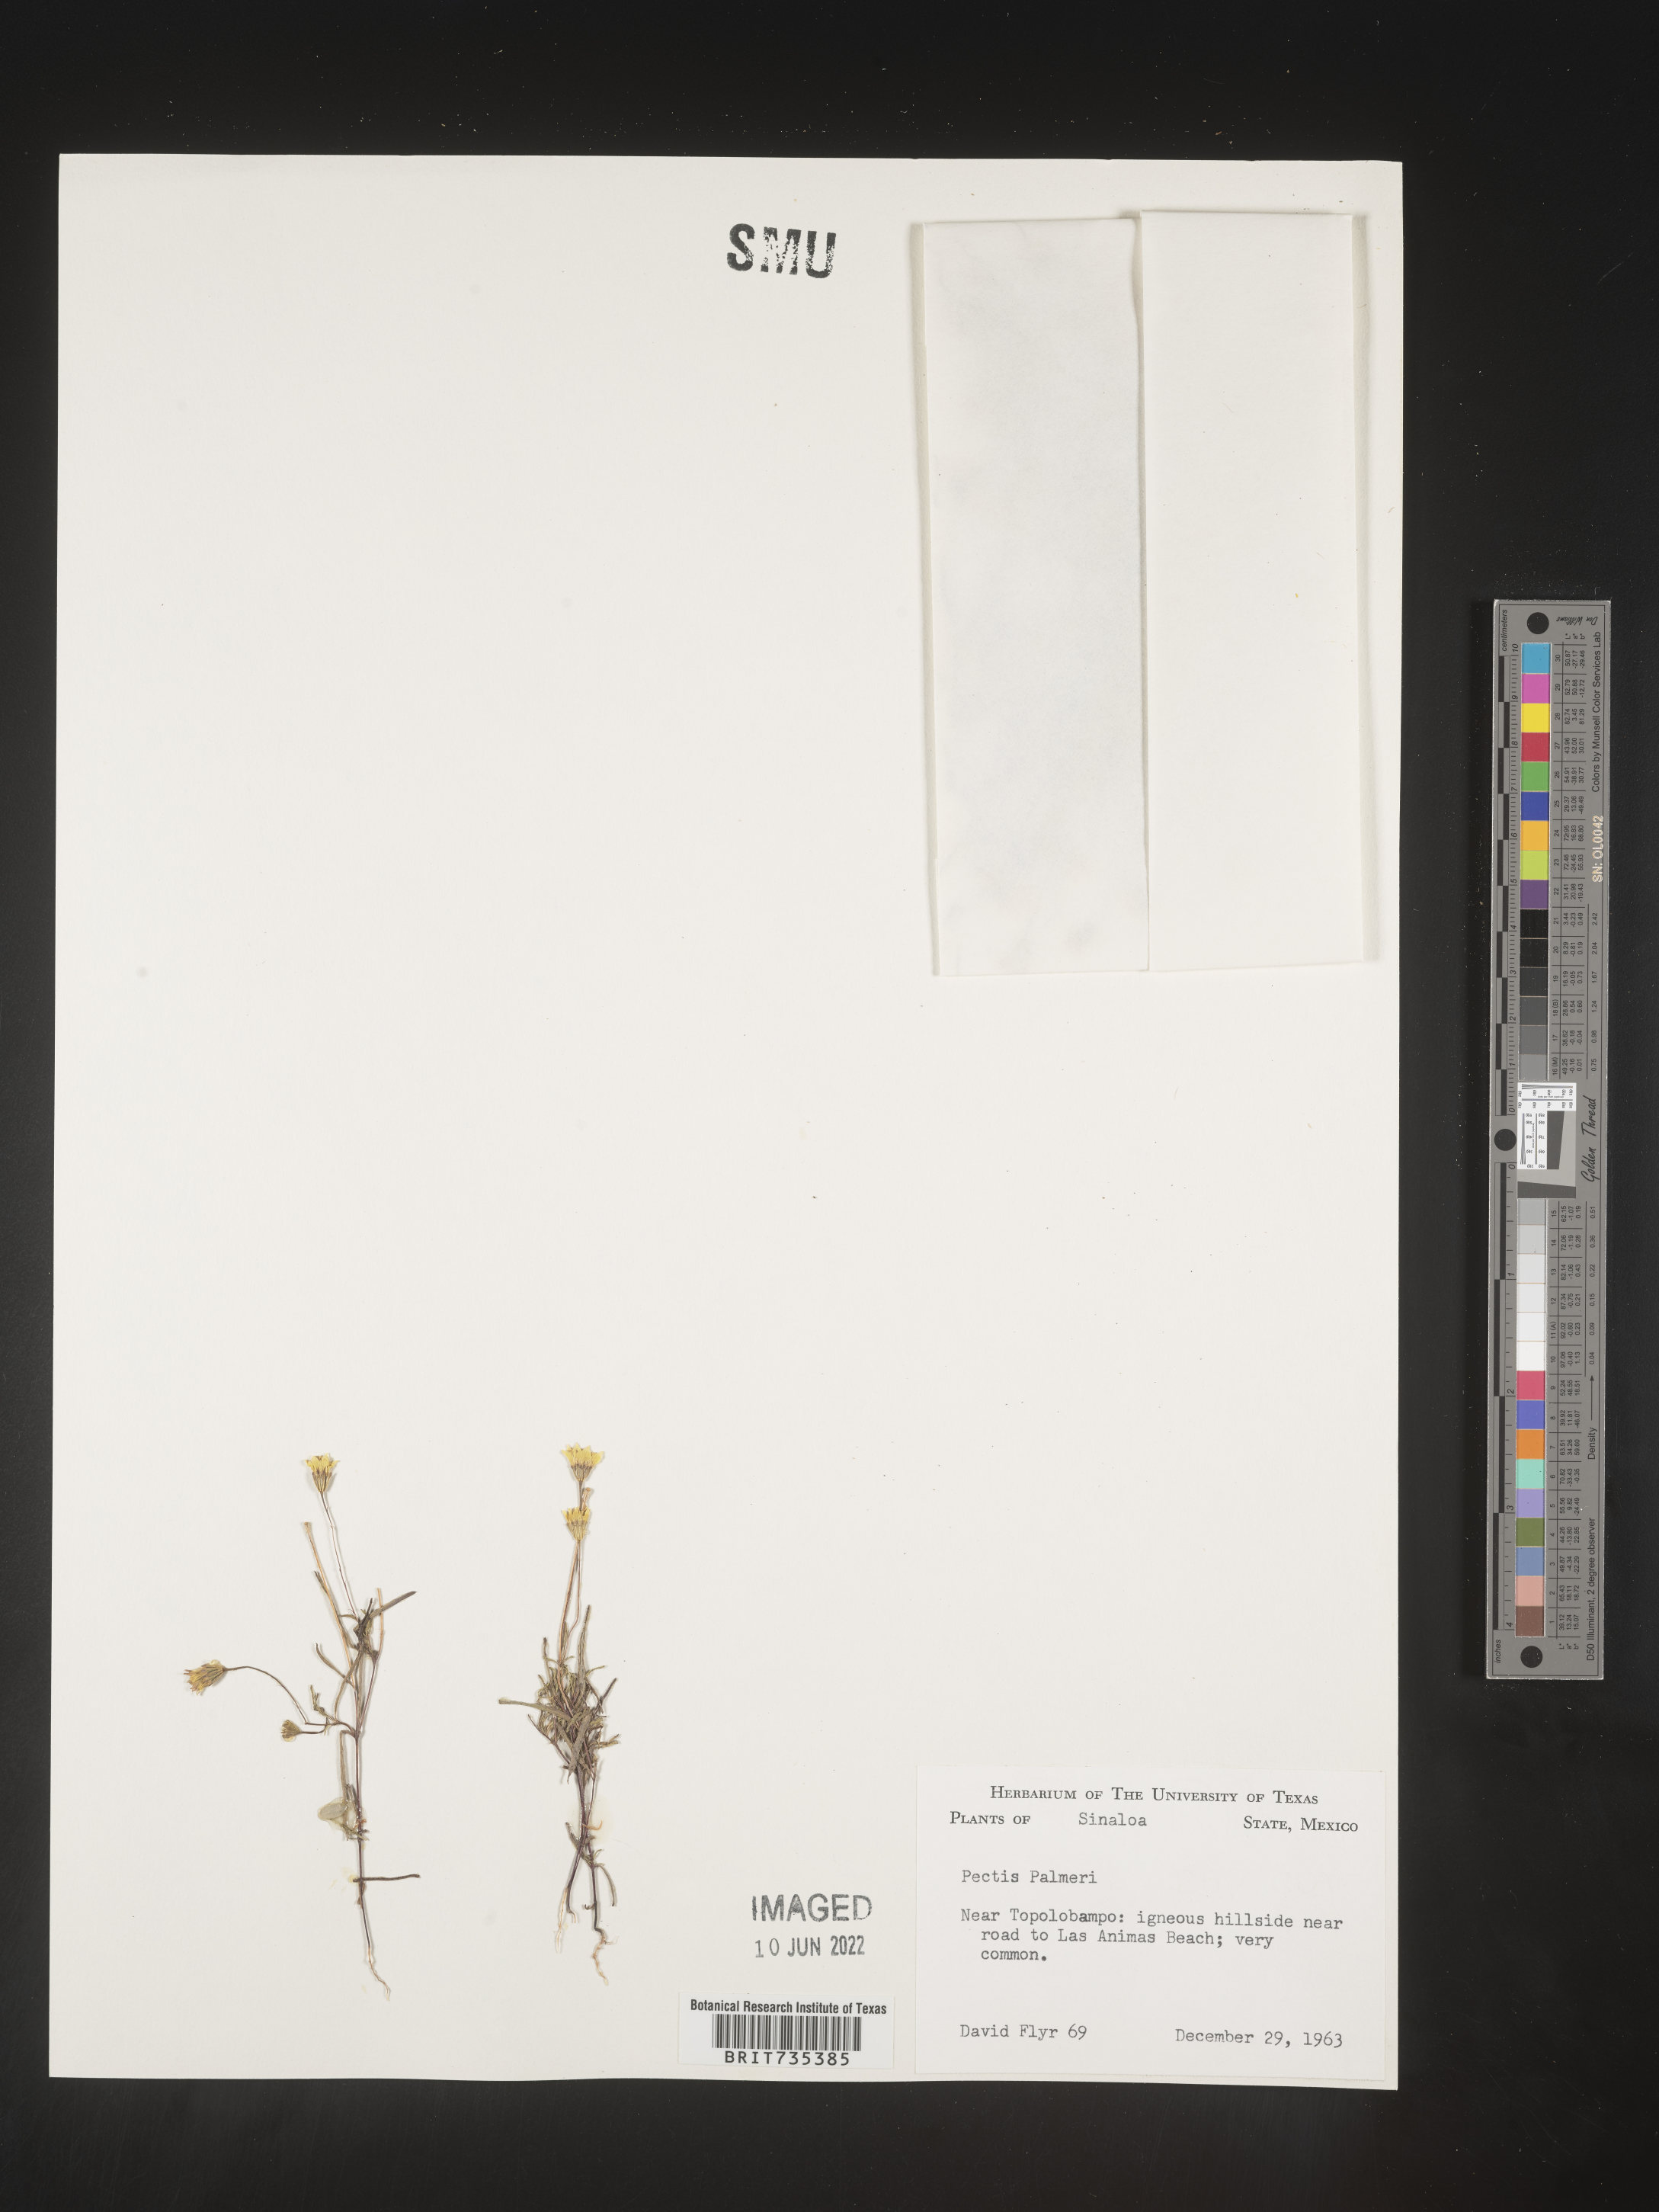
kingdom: Plantae
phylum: Tracheophyta
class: Magnoliopsida
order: Asterales
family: Asteraceae
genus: Pectis
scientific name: Pectis
